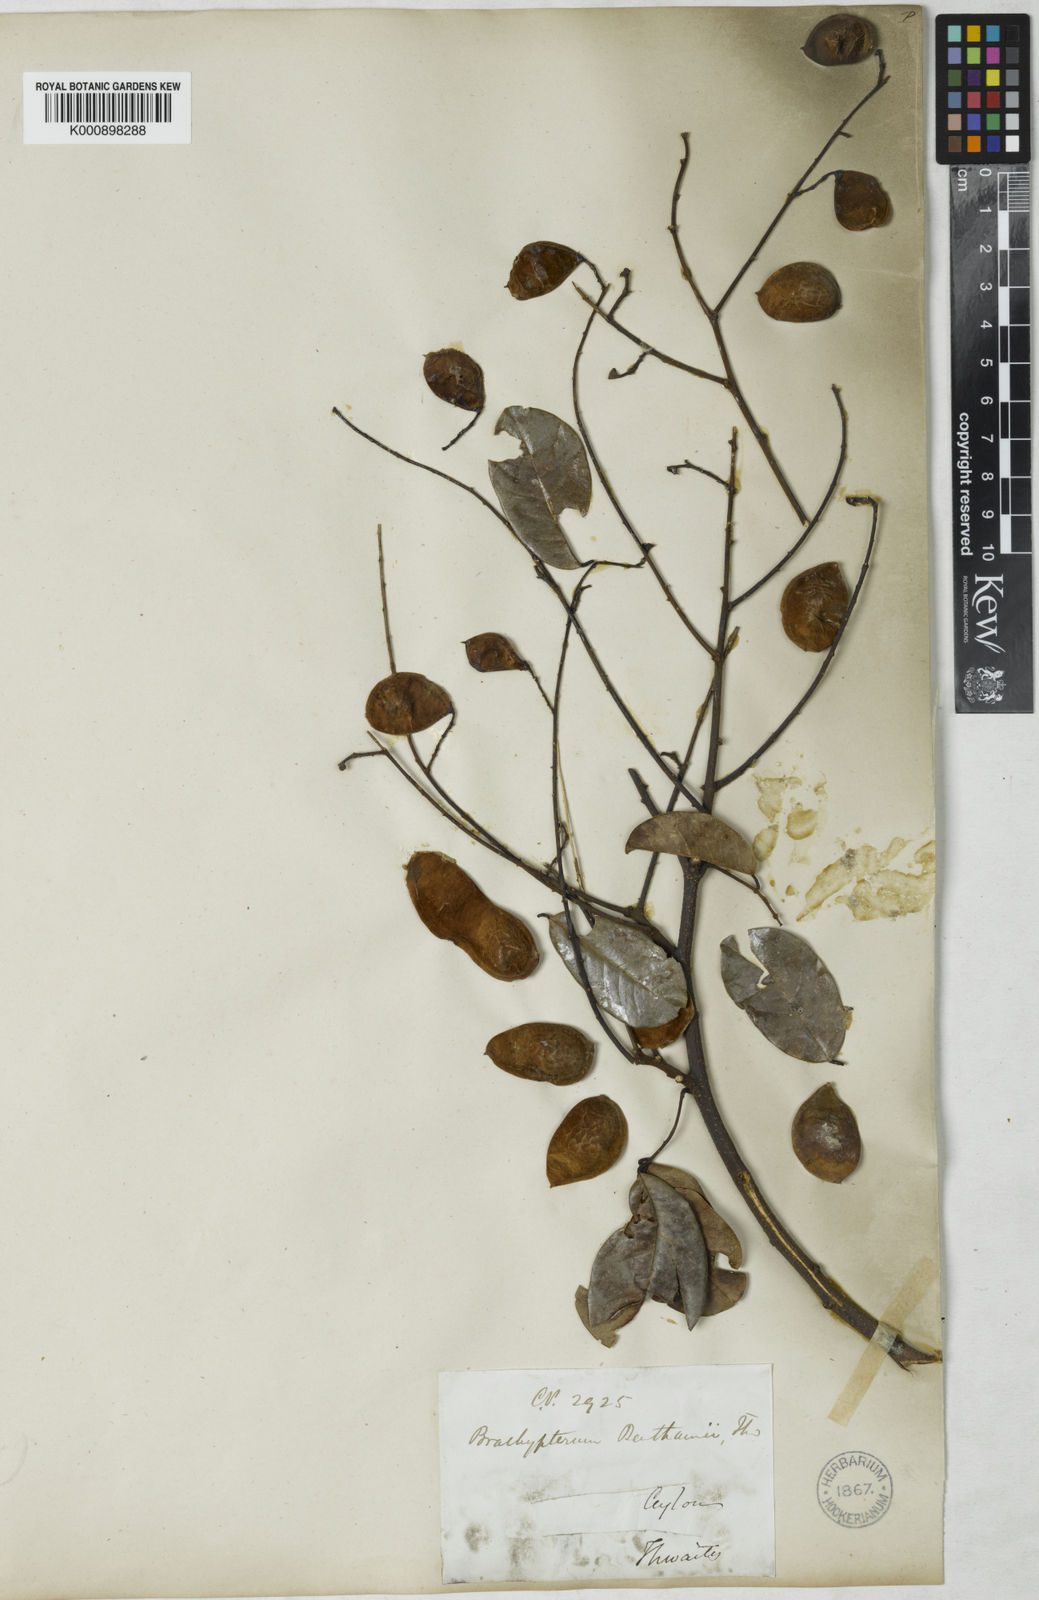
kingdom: Plantae
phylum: Tracheophyta
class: Magnoliopsida
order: Fabales
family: Fabaceae
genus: Derris
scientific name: Derris benthamii
